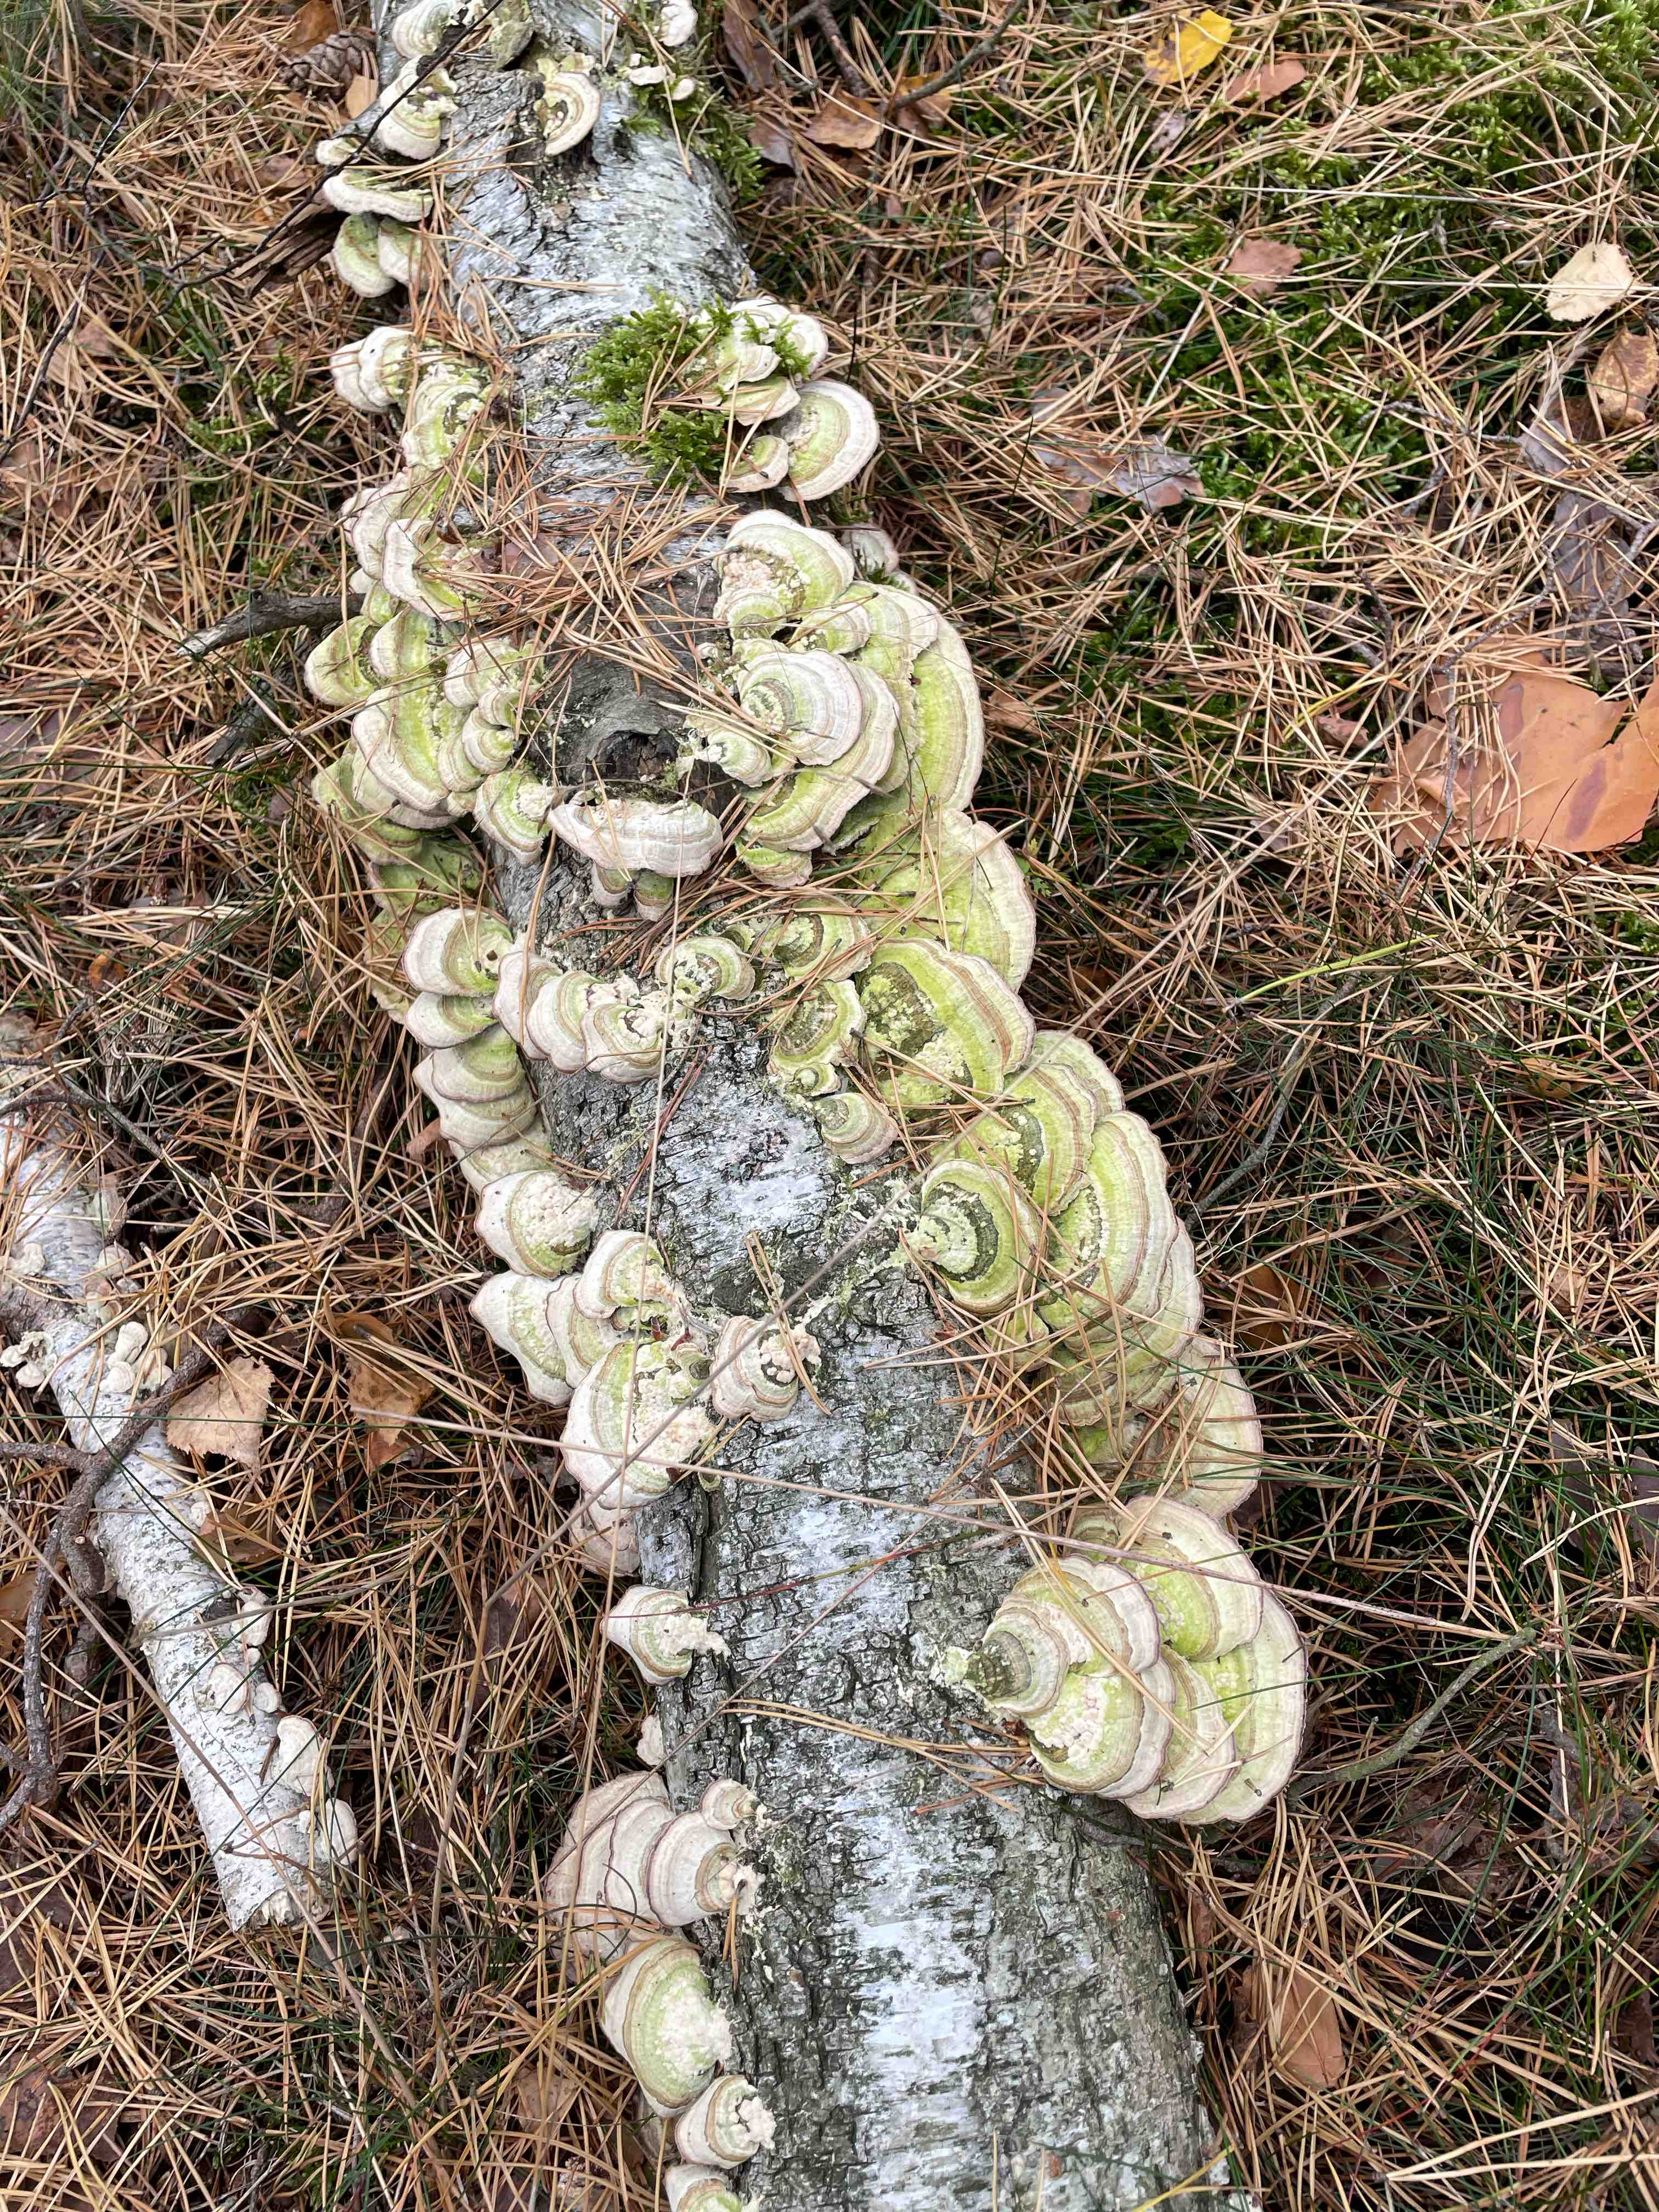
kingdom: Fungi
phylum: Basidiomycota
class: Agaricomycetes
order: Polyporales
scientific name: Polyporales
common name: poresvampordenen
